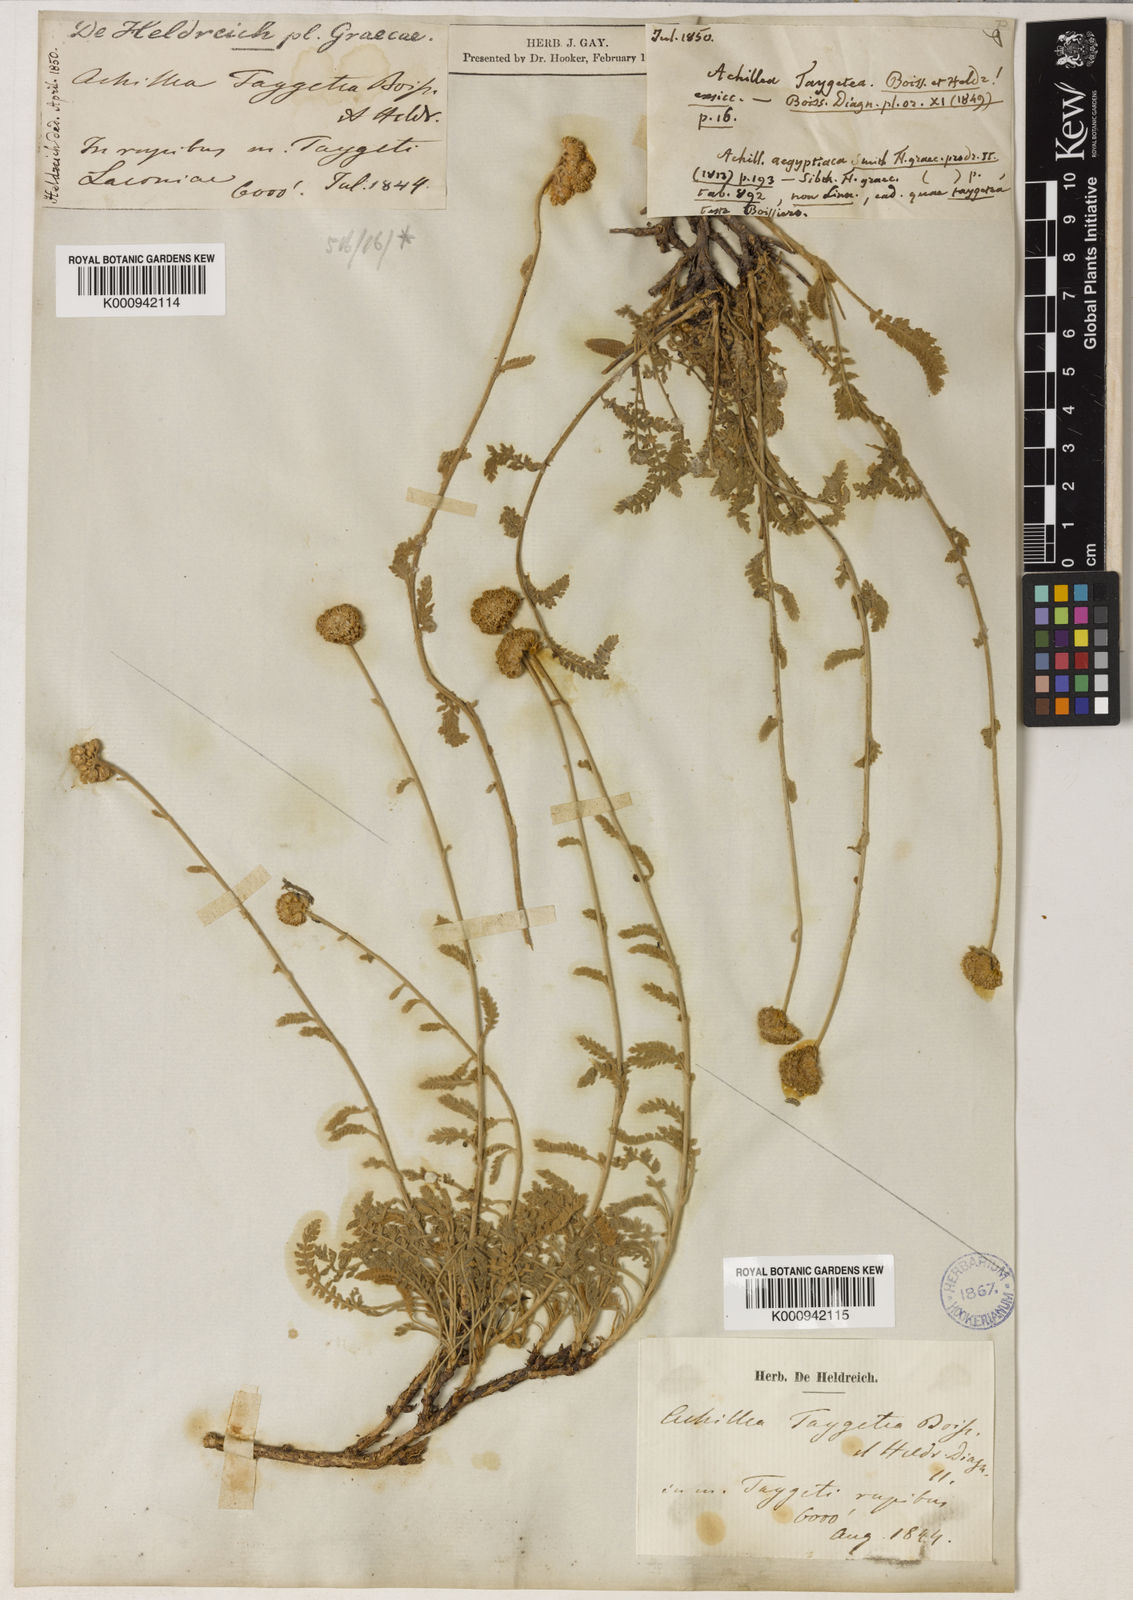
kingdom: Plantae
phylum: Tracheophyta
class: Magnoliopsida
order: Asterales
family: Asteraceae
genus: Achillea
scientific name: Achillea
